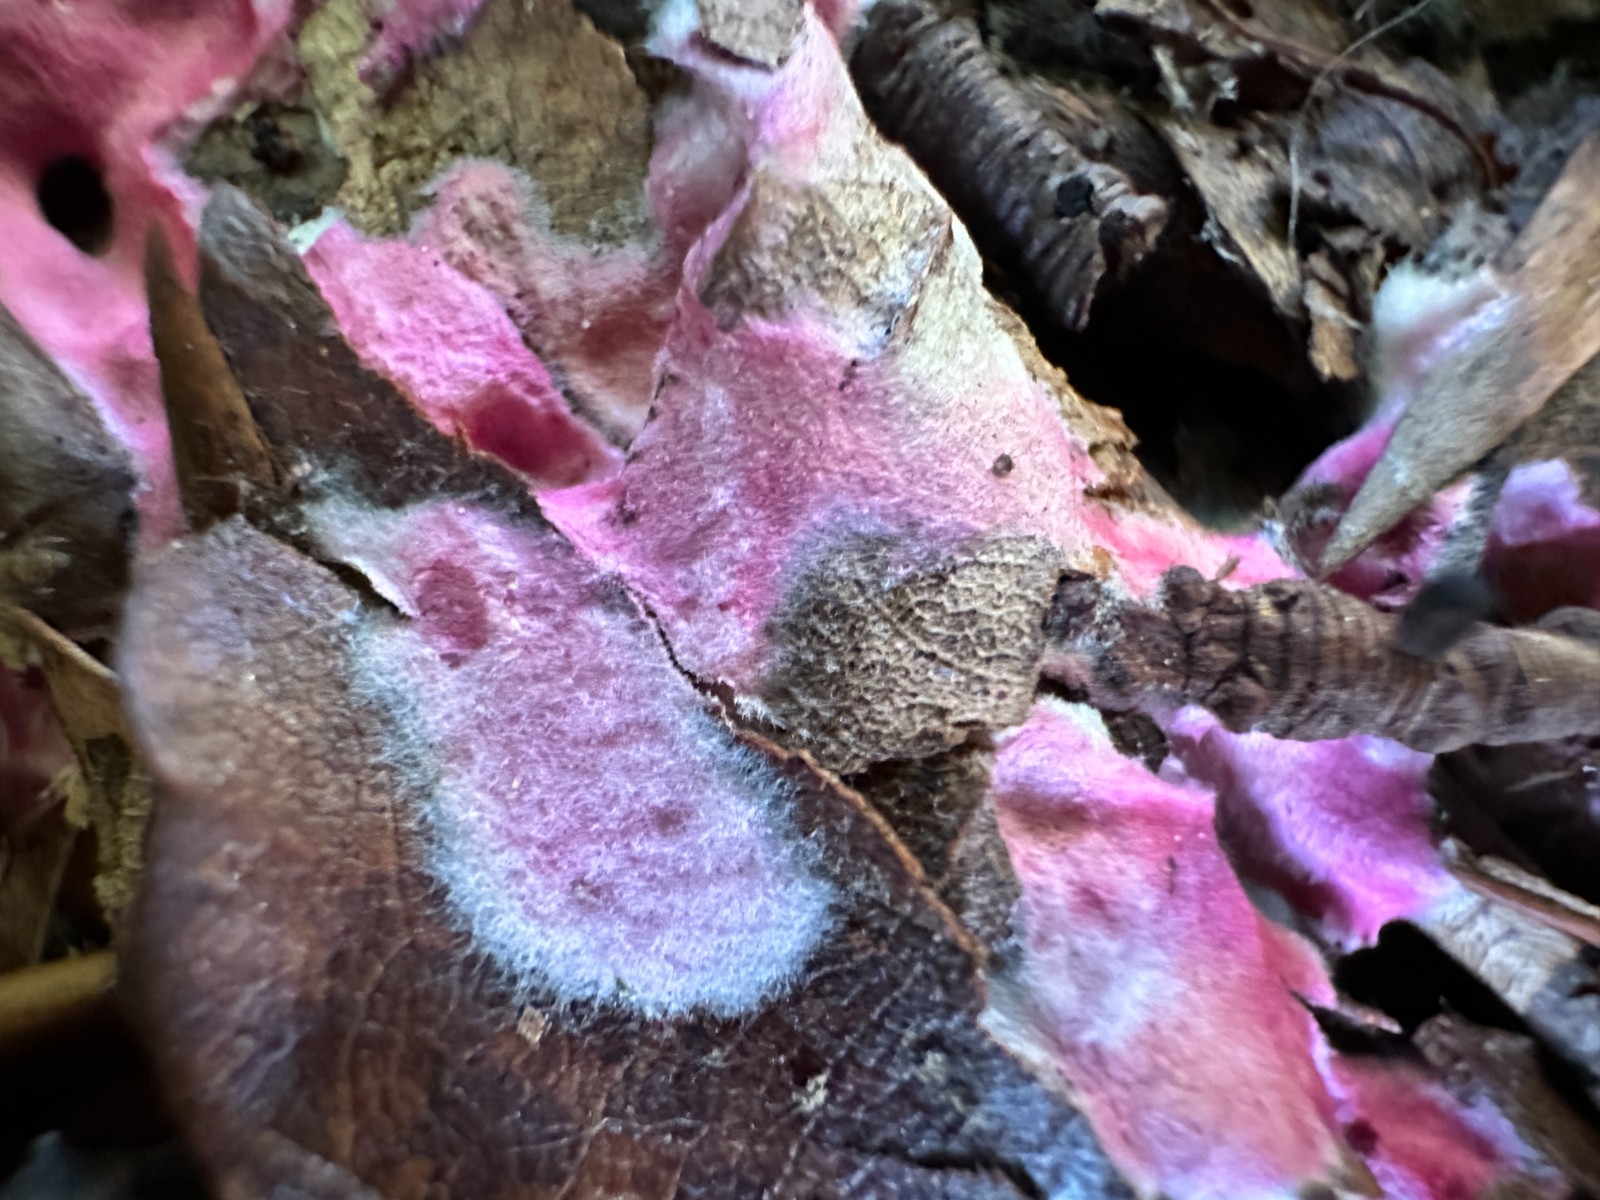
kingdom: Fungi
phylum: Ascomycota
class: Sordariomycetes
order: Hypocreales
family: Hypocreaceae
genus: Hypomyces
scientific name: Hypomyces rosellus
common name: rosa snylteskorpe
